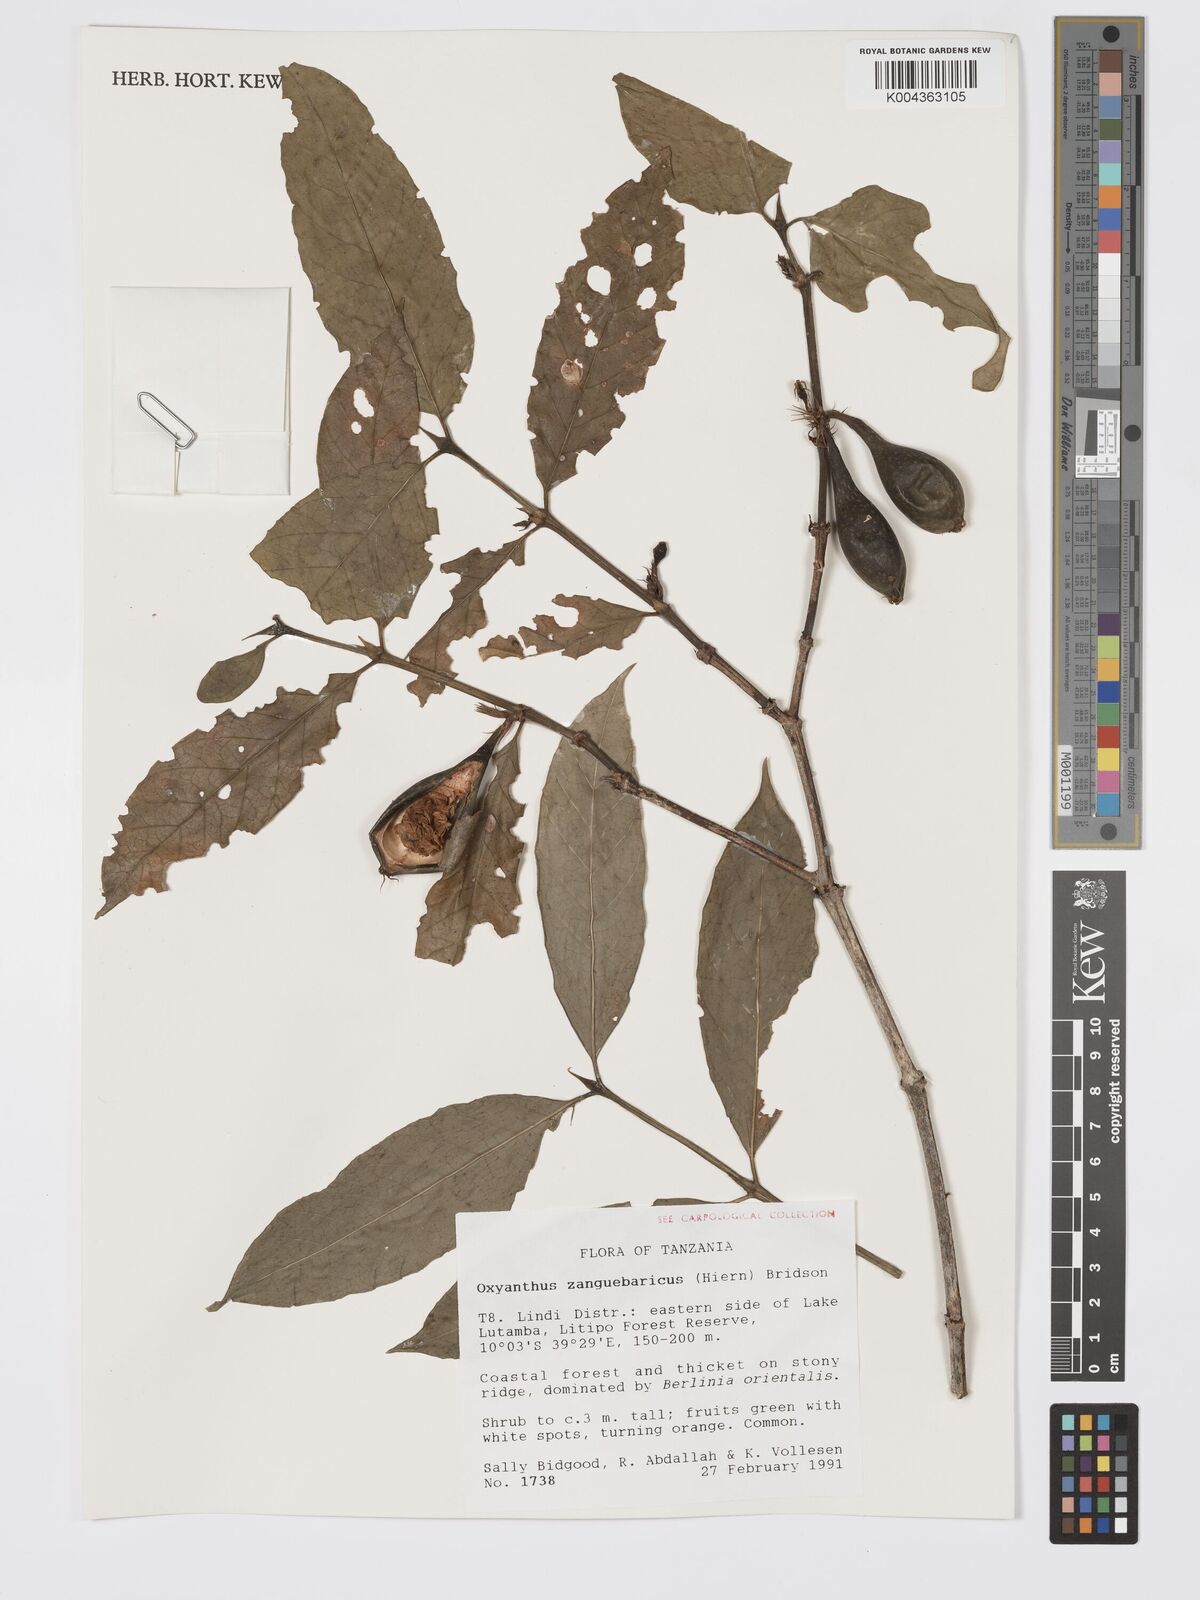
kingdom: Plantae
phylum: Tracheophyta
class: Magnoliopsida
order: Gentianales
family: Rubiaceae
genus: Oxyanthus
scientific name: Oxyanthus zanguebaricus
